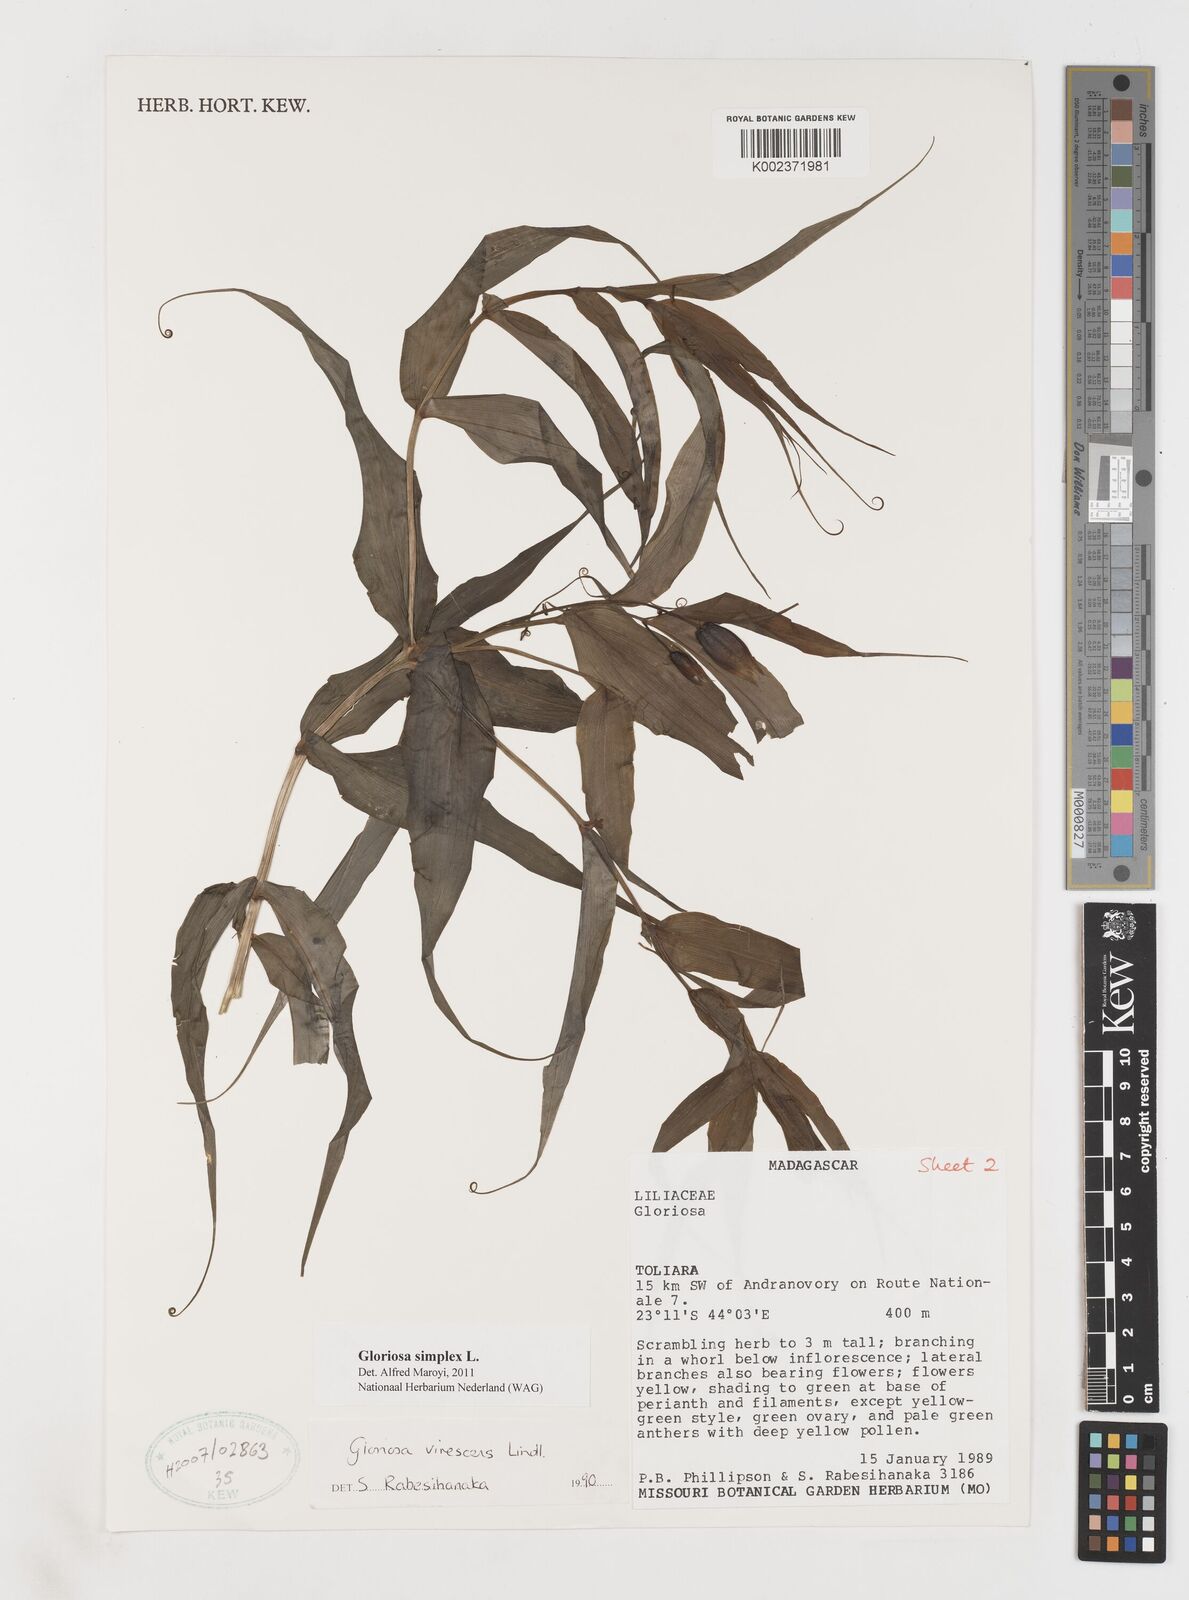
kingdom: Plantae
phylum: Tracheophyta
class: Liliopsida
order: Liliales
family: Colchicaceae
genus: Gloriosa
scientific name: Gloriosa simplex
